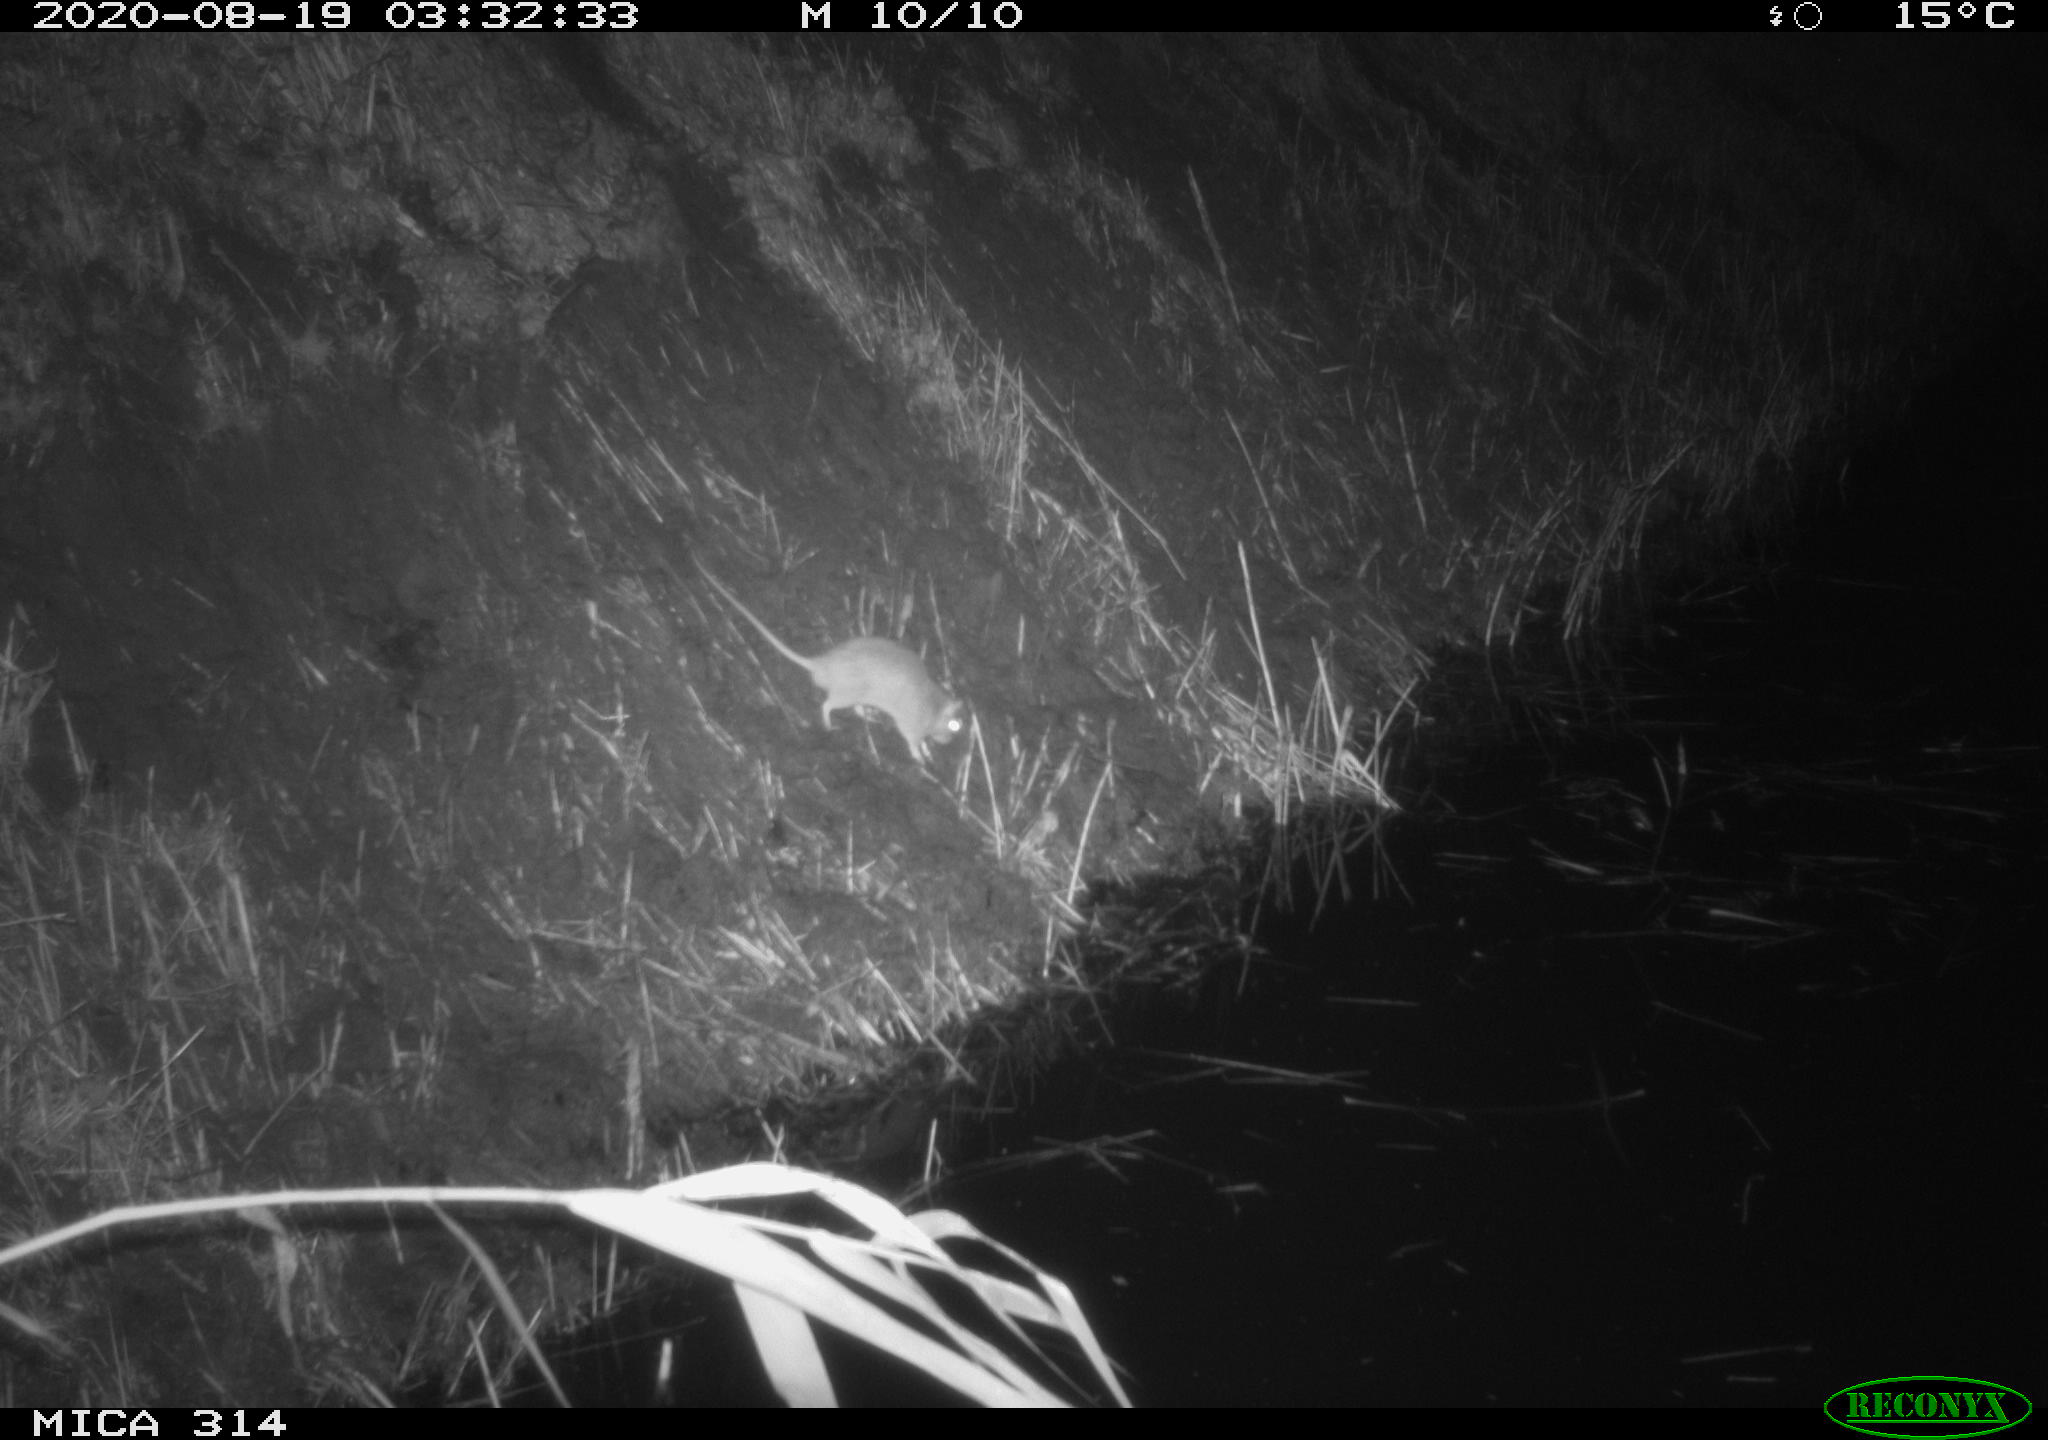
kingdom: Animalia
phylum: Chordata
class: Mammalia
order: Rodentia
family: Muridae
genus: Rattus
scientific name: Rattus norvegicus
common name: Brown rat
